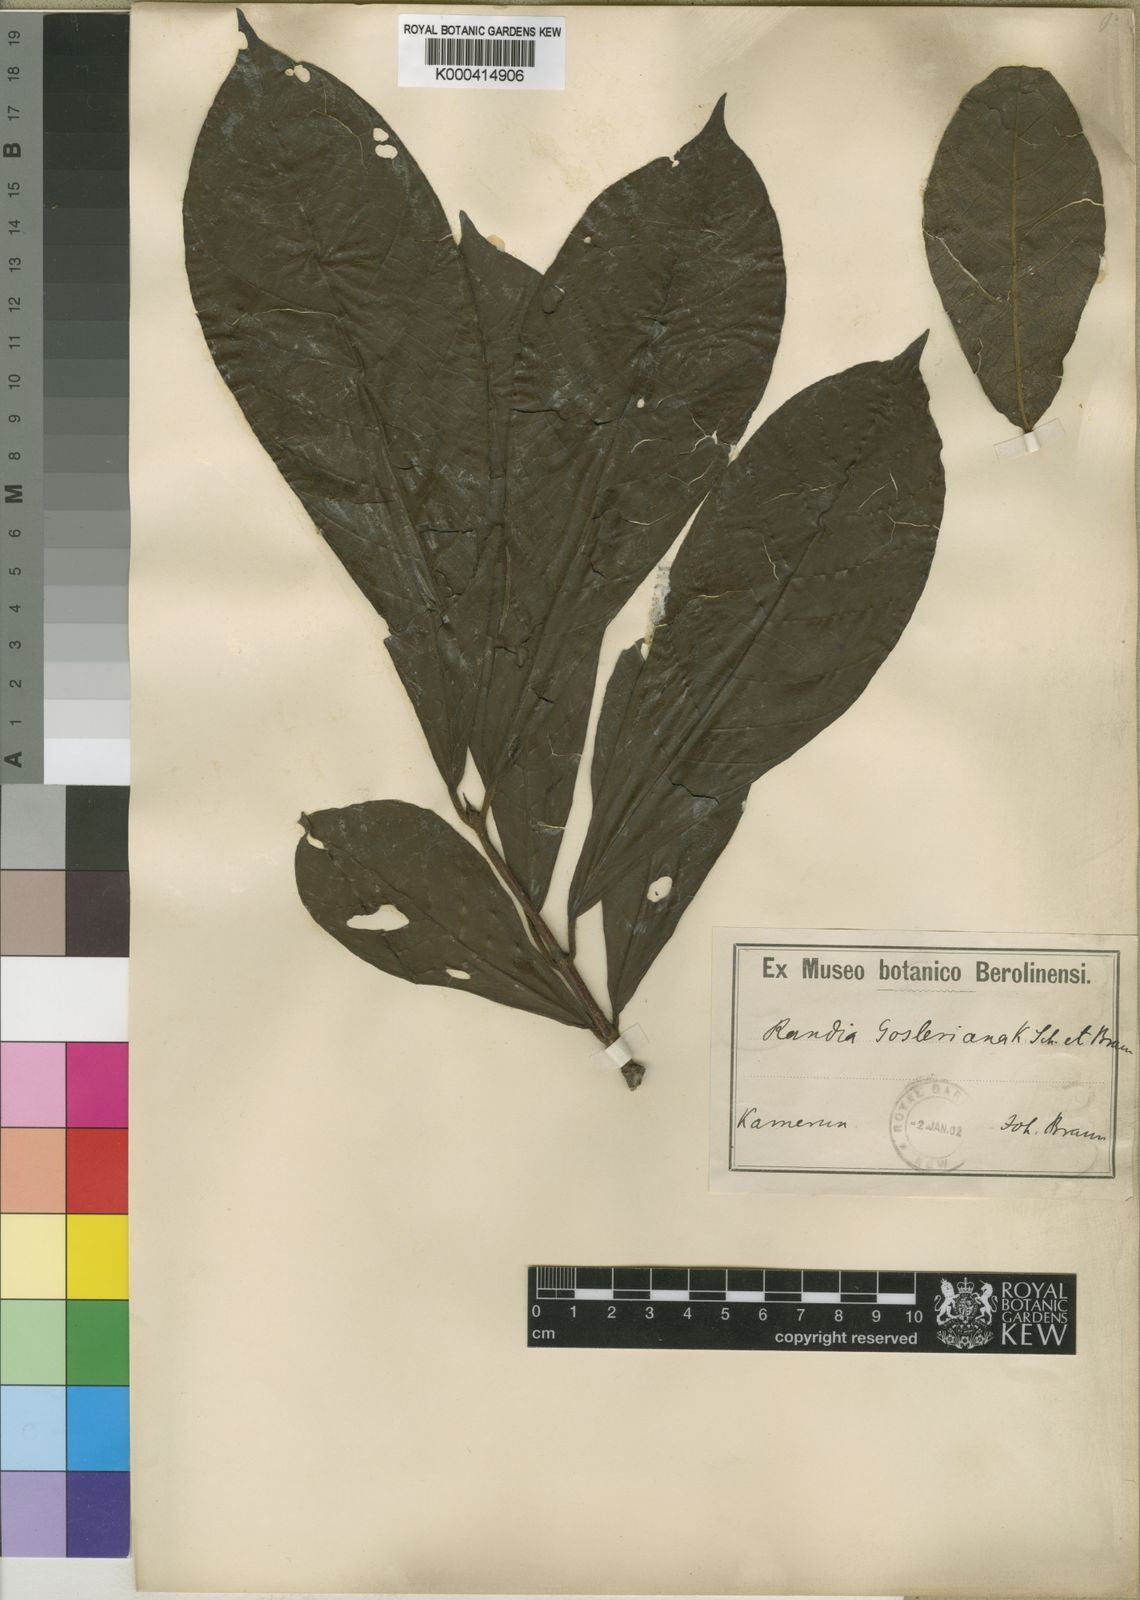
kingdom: Plantae
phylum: Tracheophyta
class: Magnoliopsida
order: Gentianales
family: Rubiaceae
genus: Adenorandia
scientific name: Adenorandia kalbreyeri
